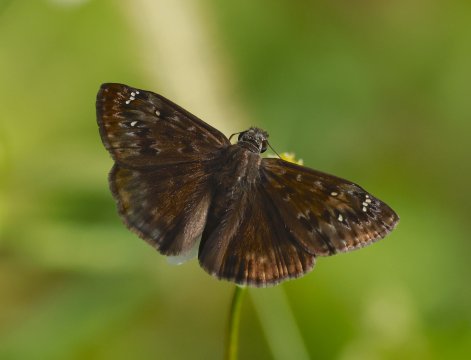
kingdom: Animalia
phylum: Arthropoda
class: Insecta
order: Lepidoptera
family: Hesperiidae
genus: Gesta
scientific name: Gesta
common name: Horace's Duskywing
